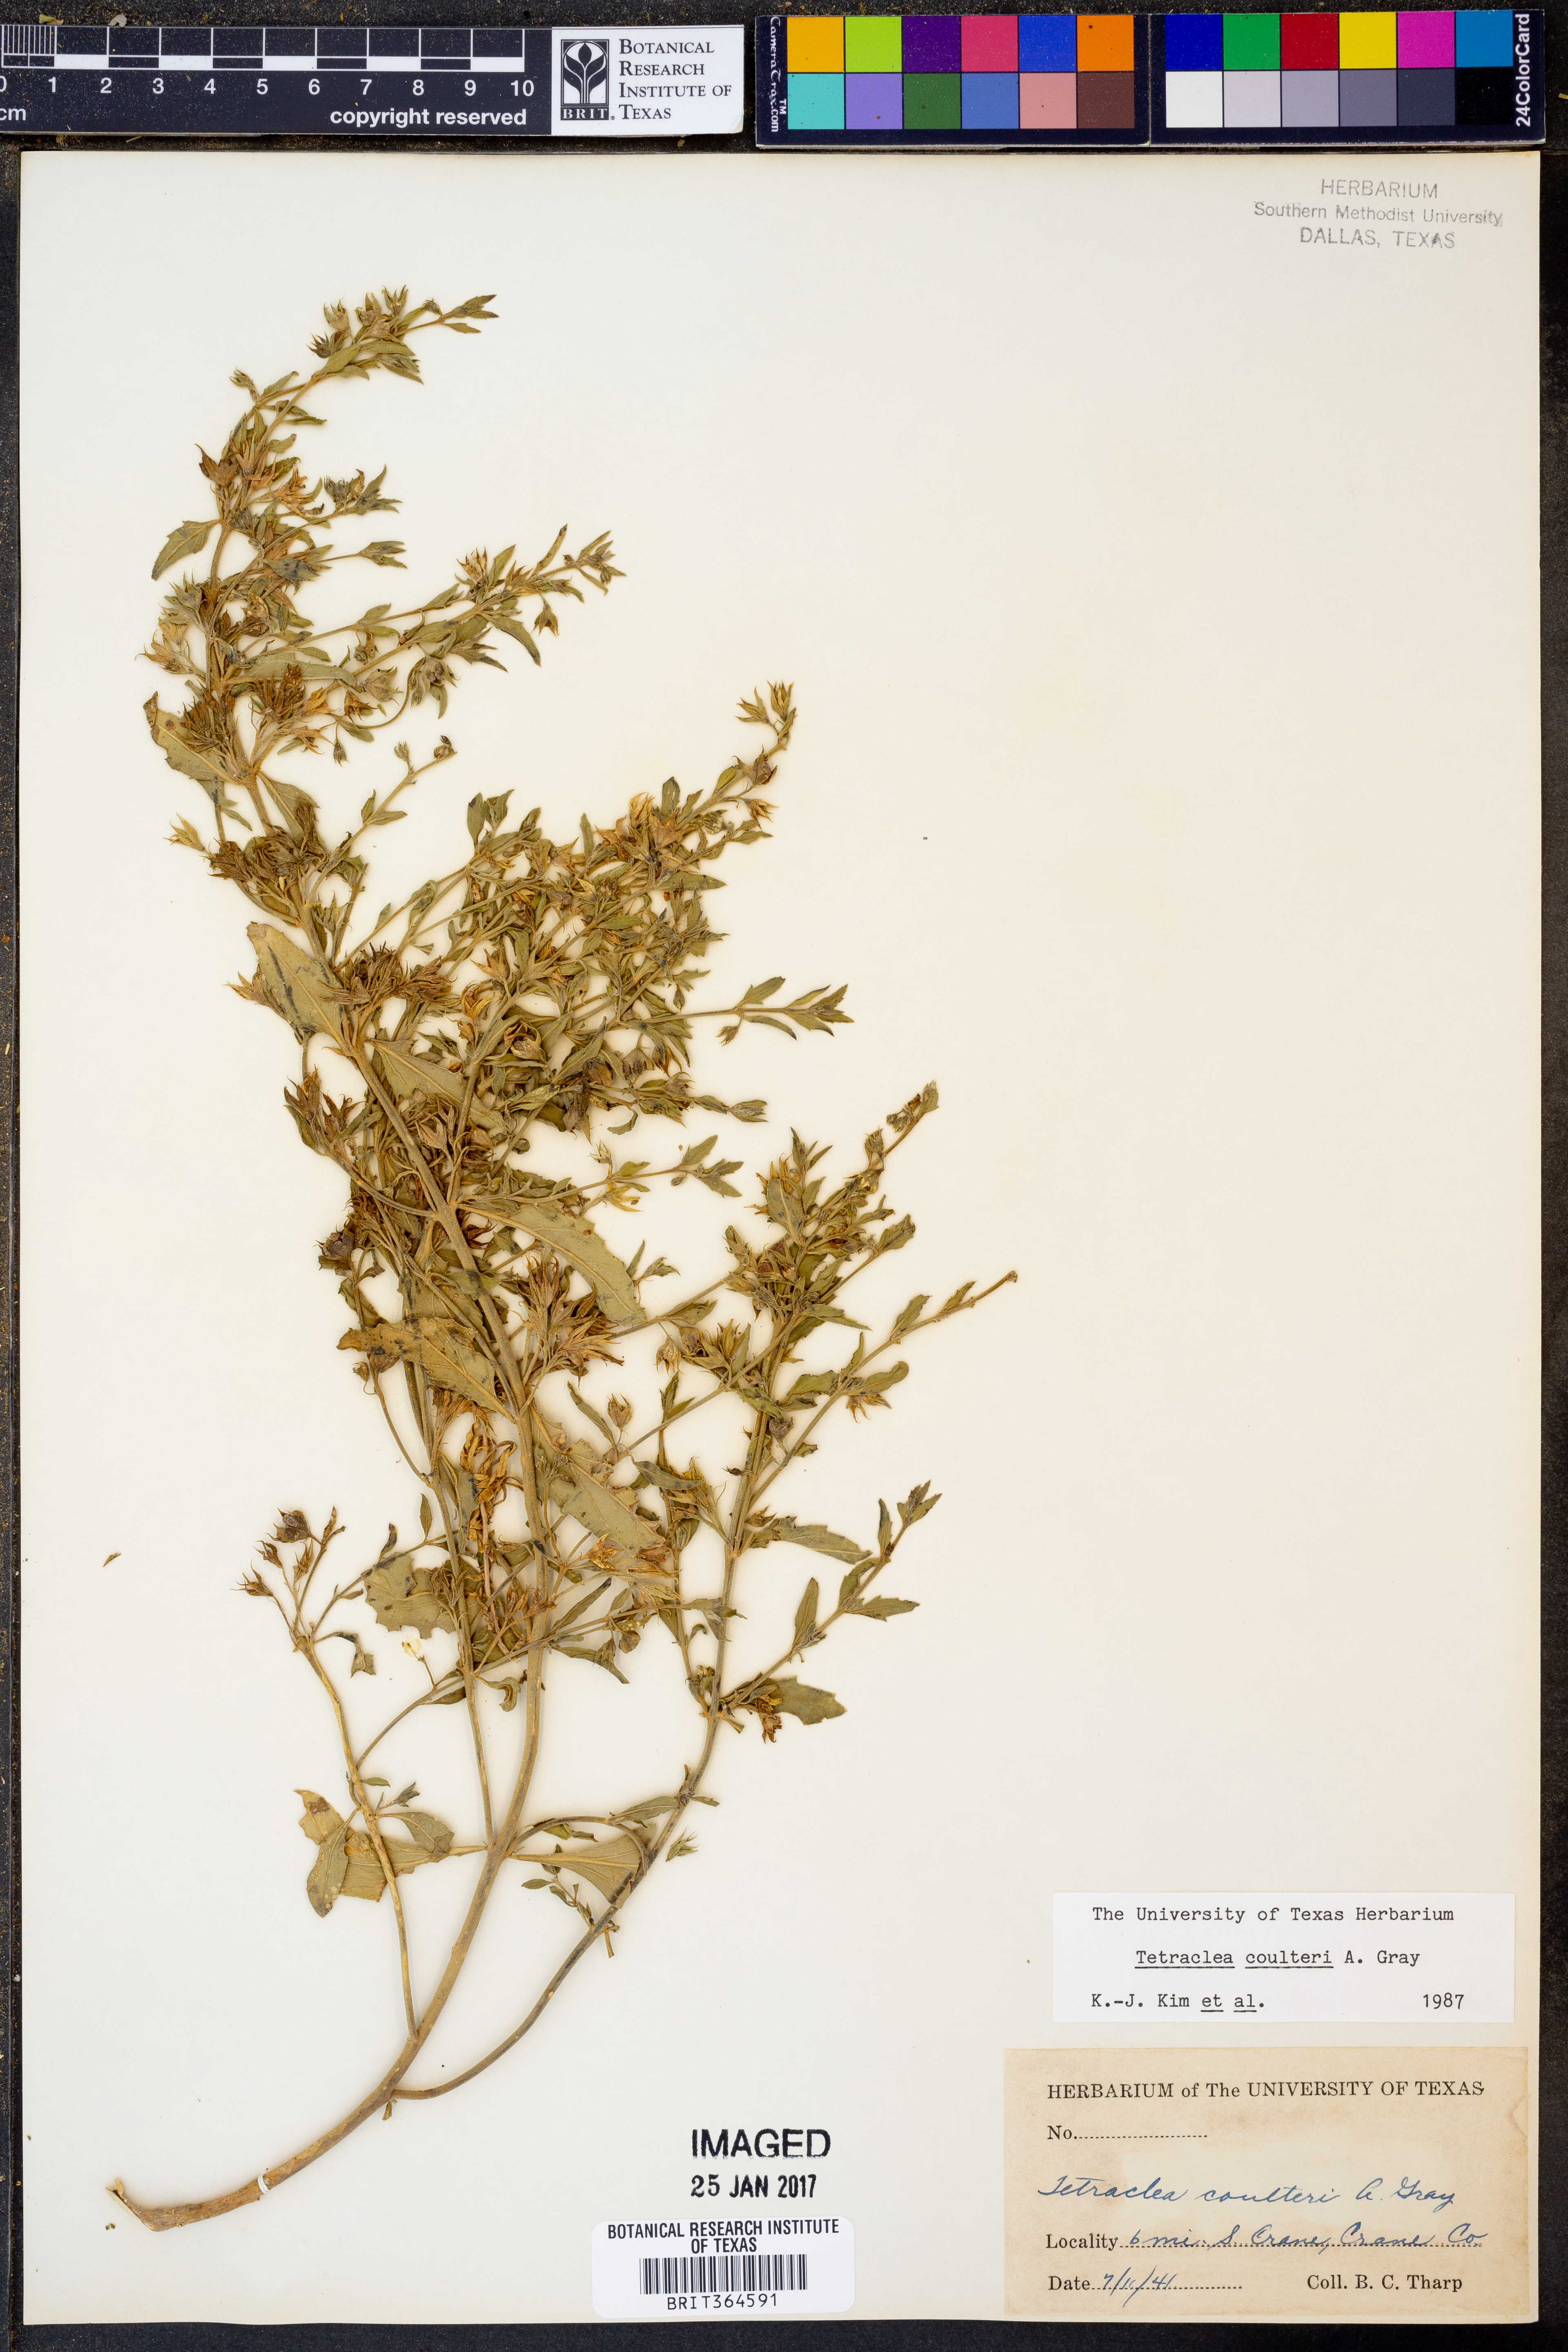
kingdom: Plantae
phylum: Tracheophyta
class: Magnoliopsida
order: Lamiales
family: Lamiaceae
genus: Tetraclea
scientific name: Tetraclea coulteri
